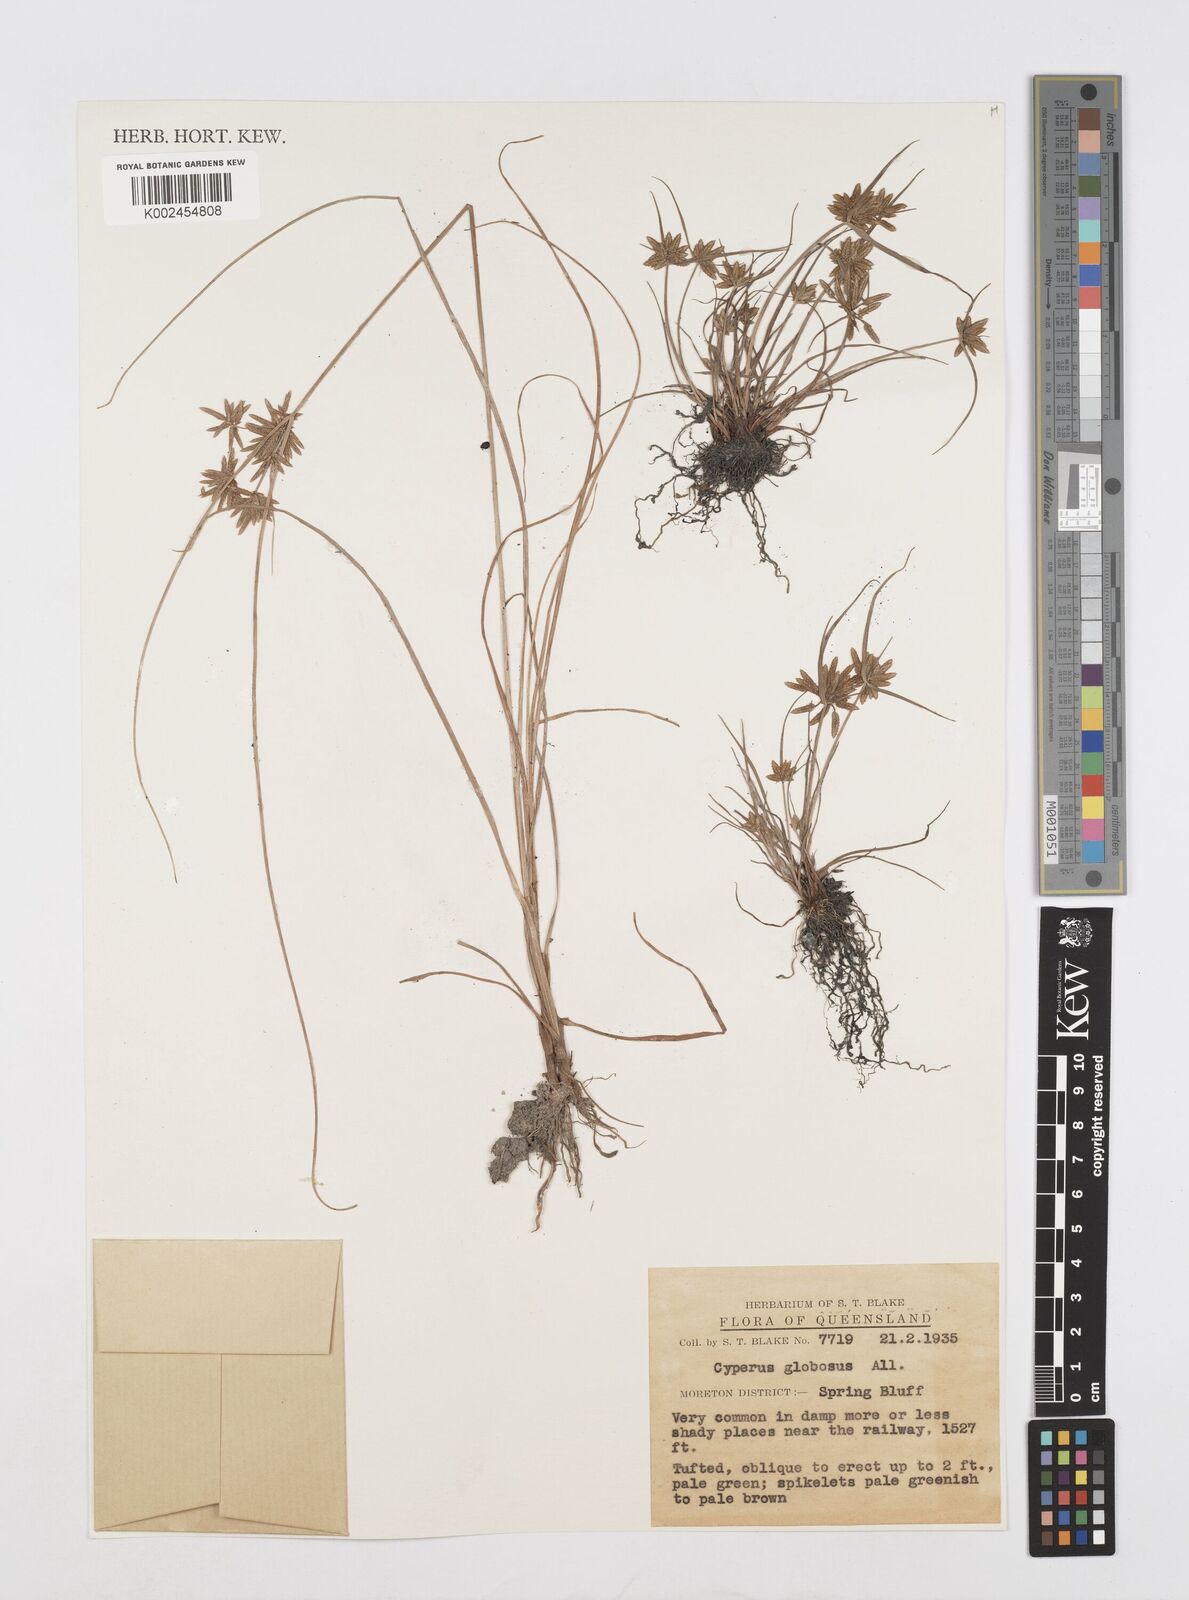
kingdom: Plantae
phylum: Tracheophyta
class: Liliopsida
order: Poales
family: Cyperaceae
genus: Cyperus
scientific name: Cyperus flavidus
